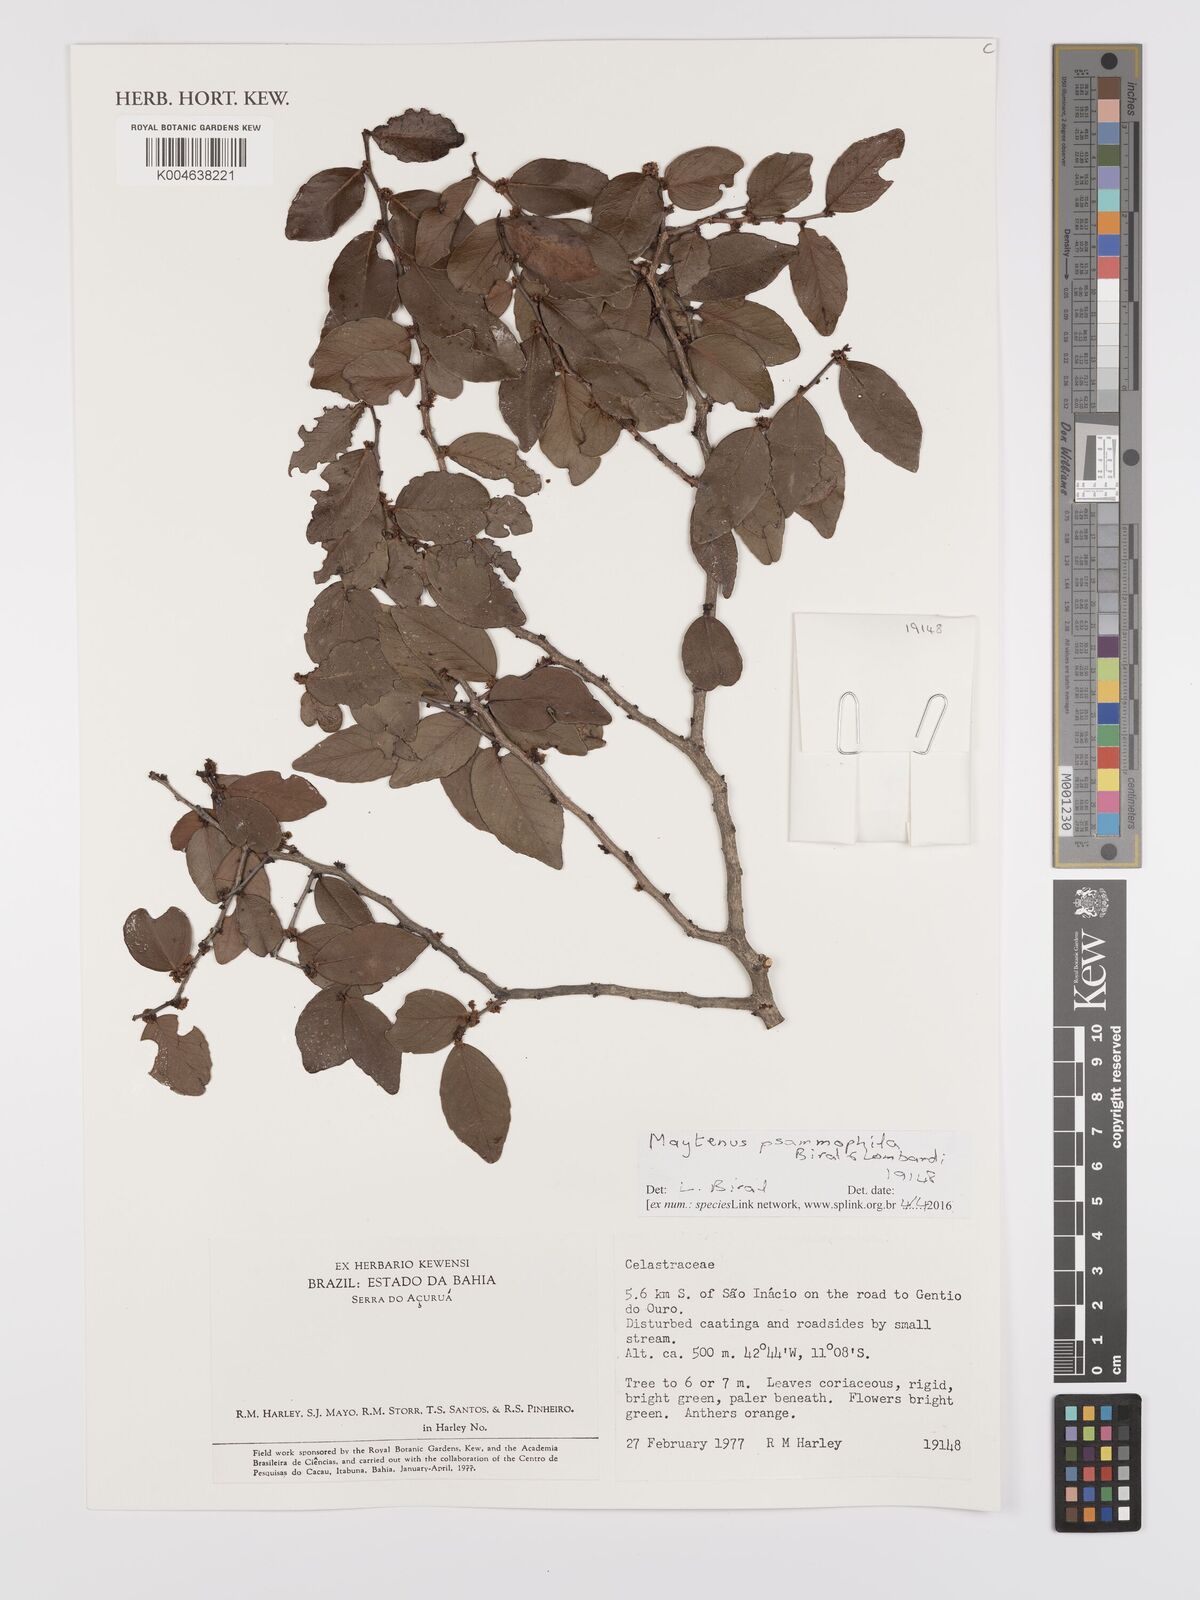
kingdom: Plantae
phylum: Tracheophyta
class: Magnoliopsida
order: Celastrales
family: Celastraceae
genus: Monteverdia
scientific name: Monteverdia psammophila
